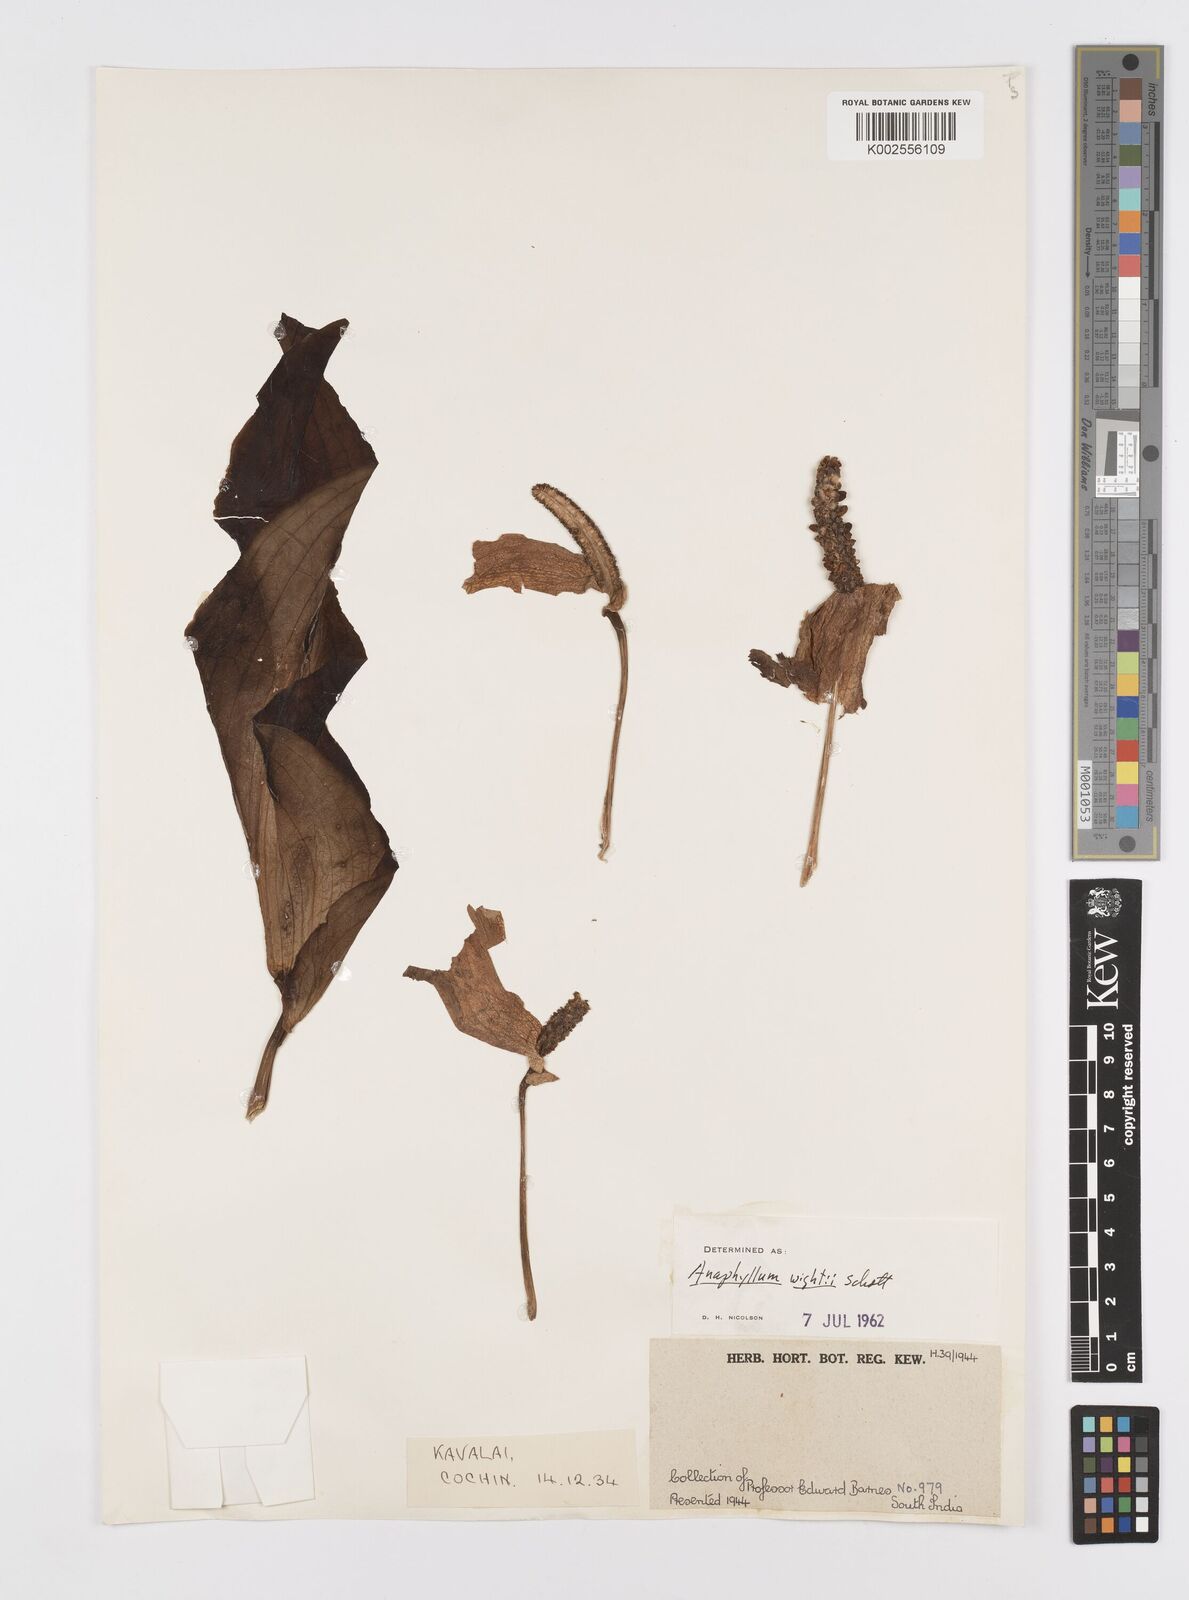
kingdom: Plantae
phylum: Tracheophyta
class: Liliopsida
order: Alismatales
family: Araceae
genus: Anaphyllum
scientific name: Anaphyllum wightii
